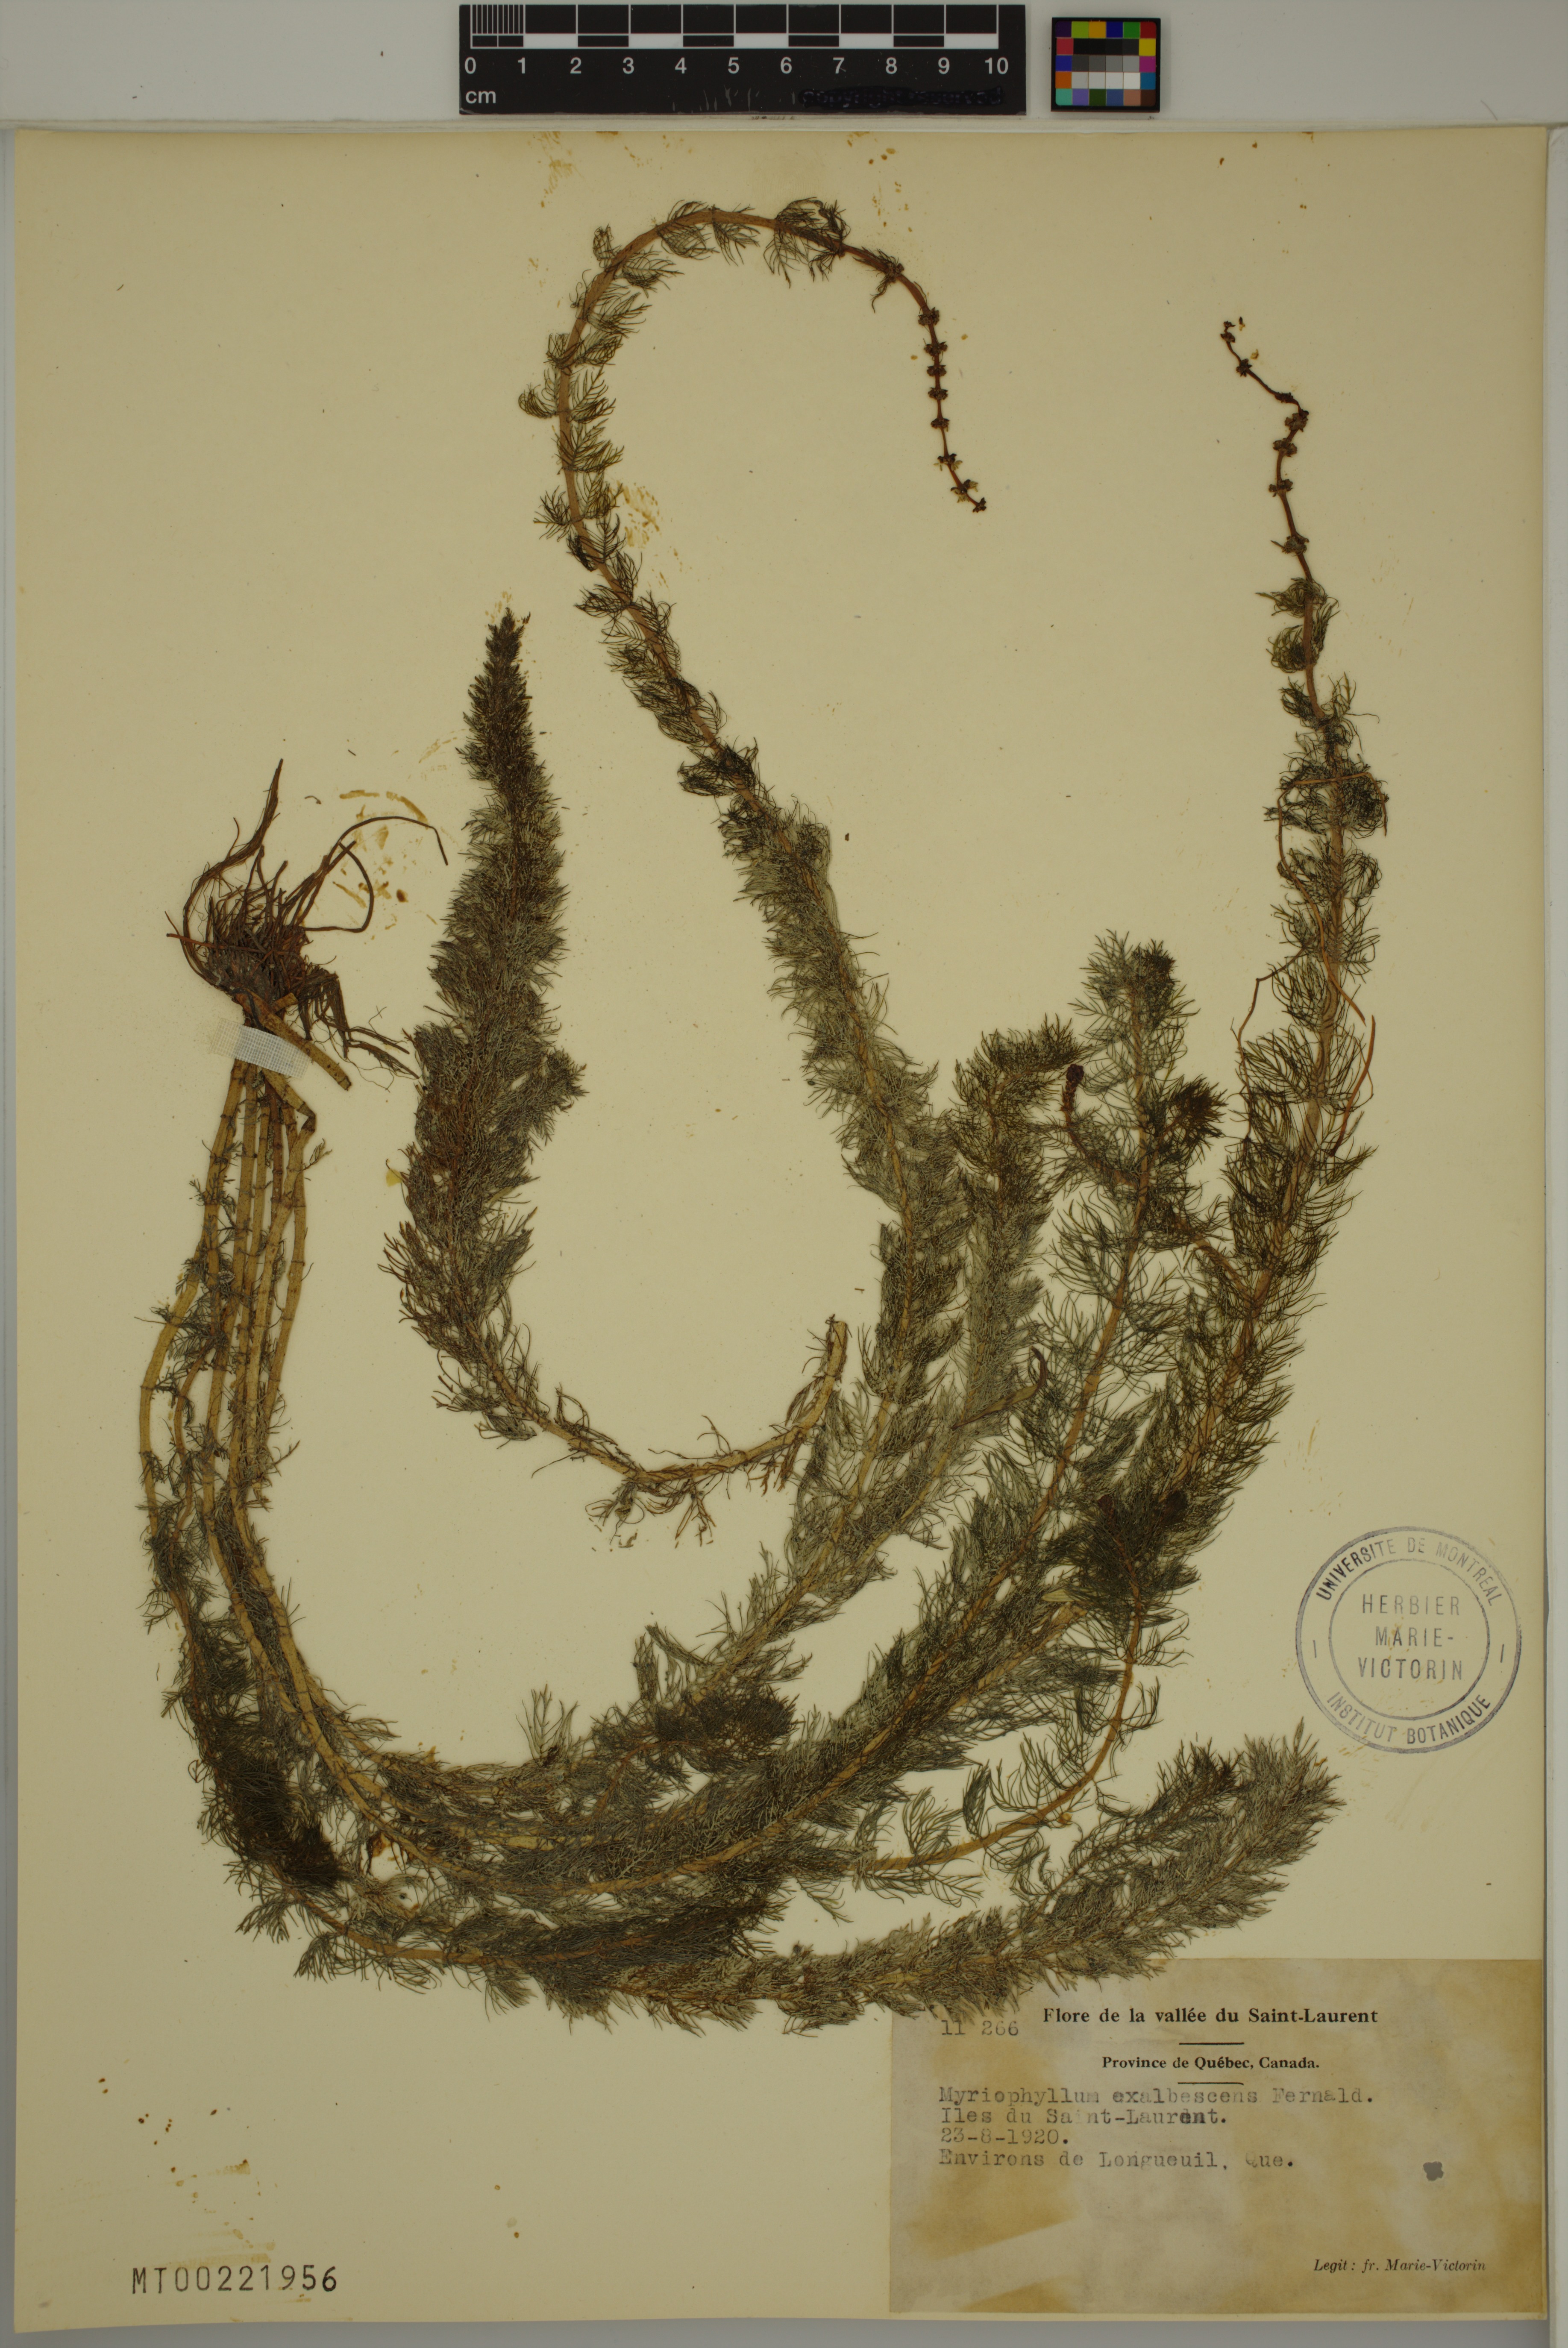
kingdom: Plantae
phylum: Tracheophyta
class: Magnoliopsida
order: Saxifragales
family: Haloragaceae
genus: Myriophyllum
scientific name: Myriophyllum sibiricum
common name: Siberian water-milfoil
